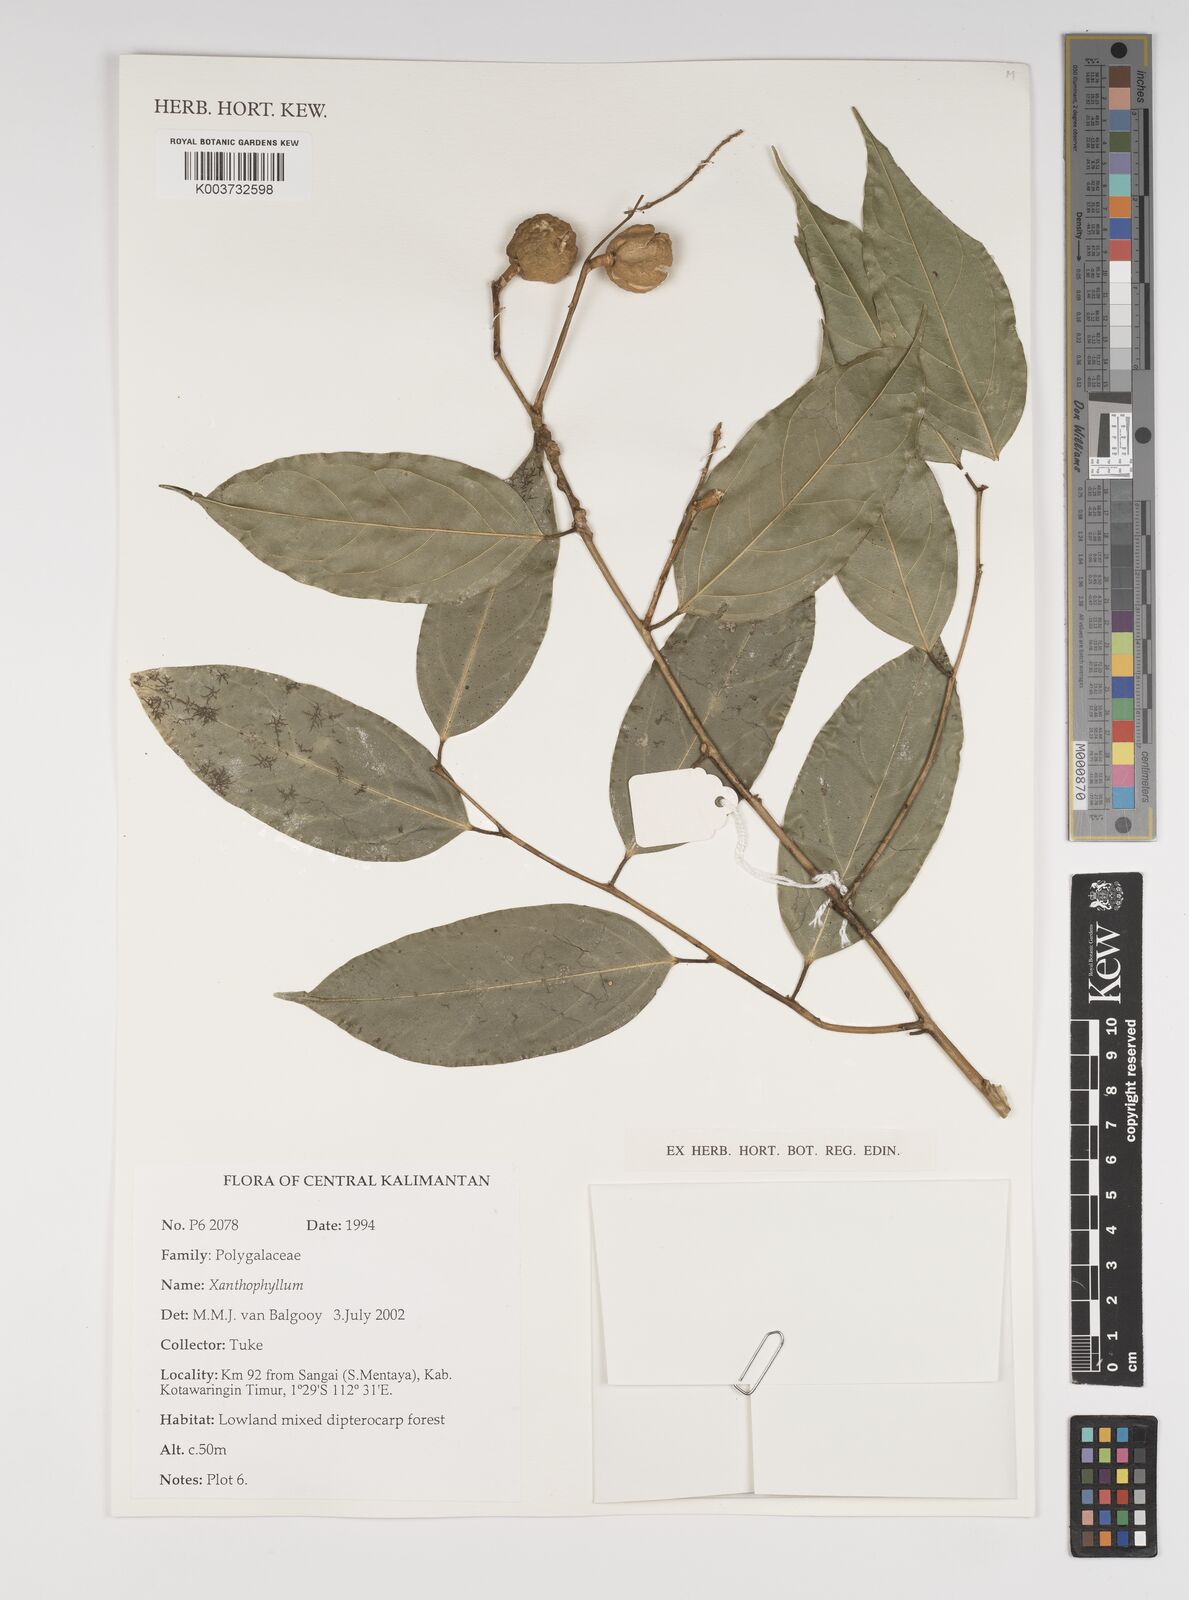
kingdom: Plantae
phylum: Tracheophyta
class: Magnoliopsida
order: Fabales
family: Polygalaceae
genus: Xanthophyllum
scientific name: Xanthophyllum
